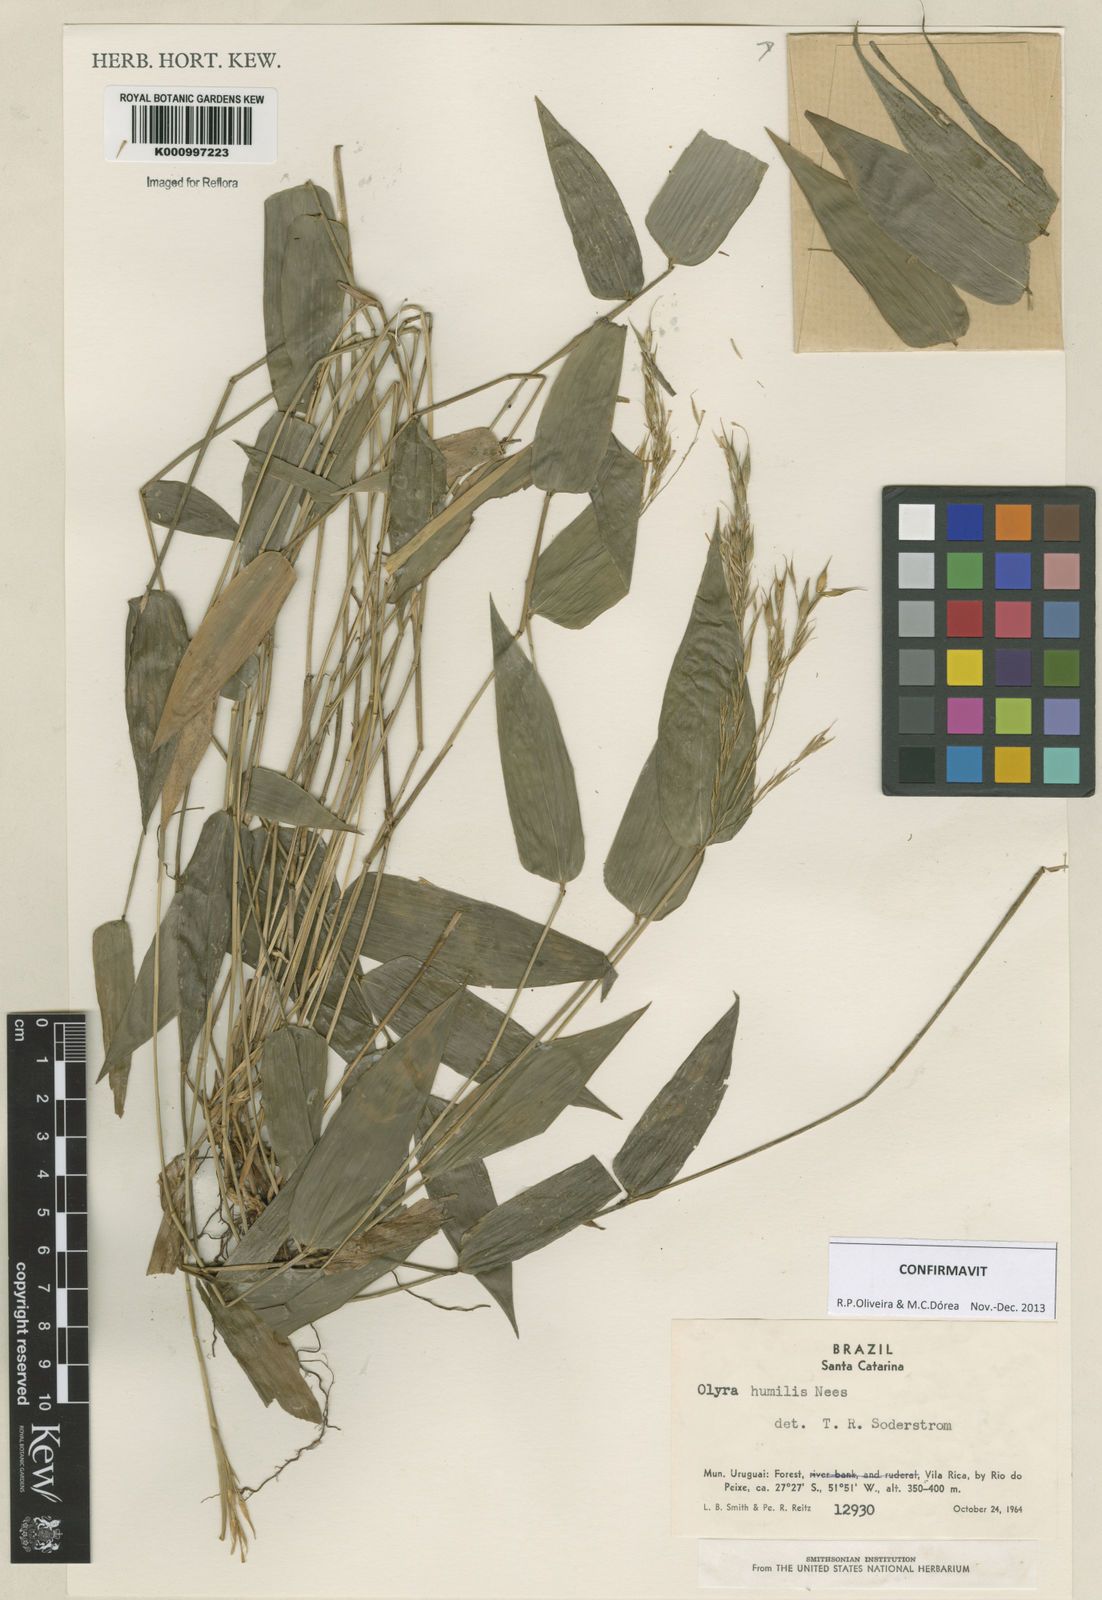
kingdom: Plantae
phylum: Tracheophyta
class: Liliopsida
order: Poales
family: Poaceae
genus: Olyra
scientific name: Olyra humilis
